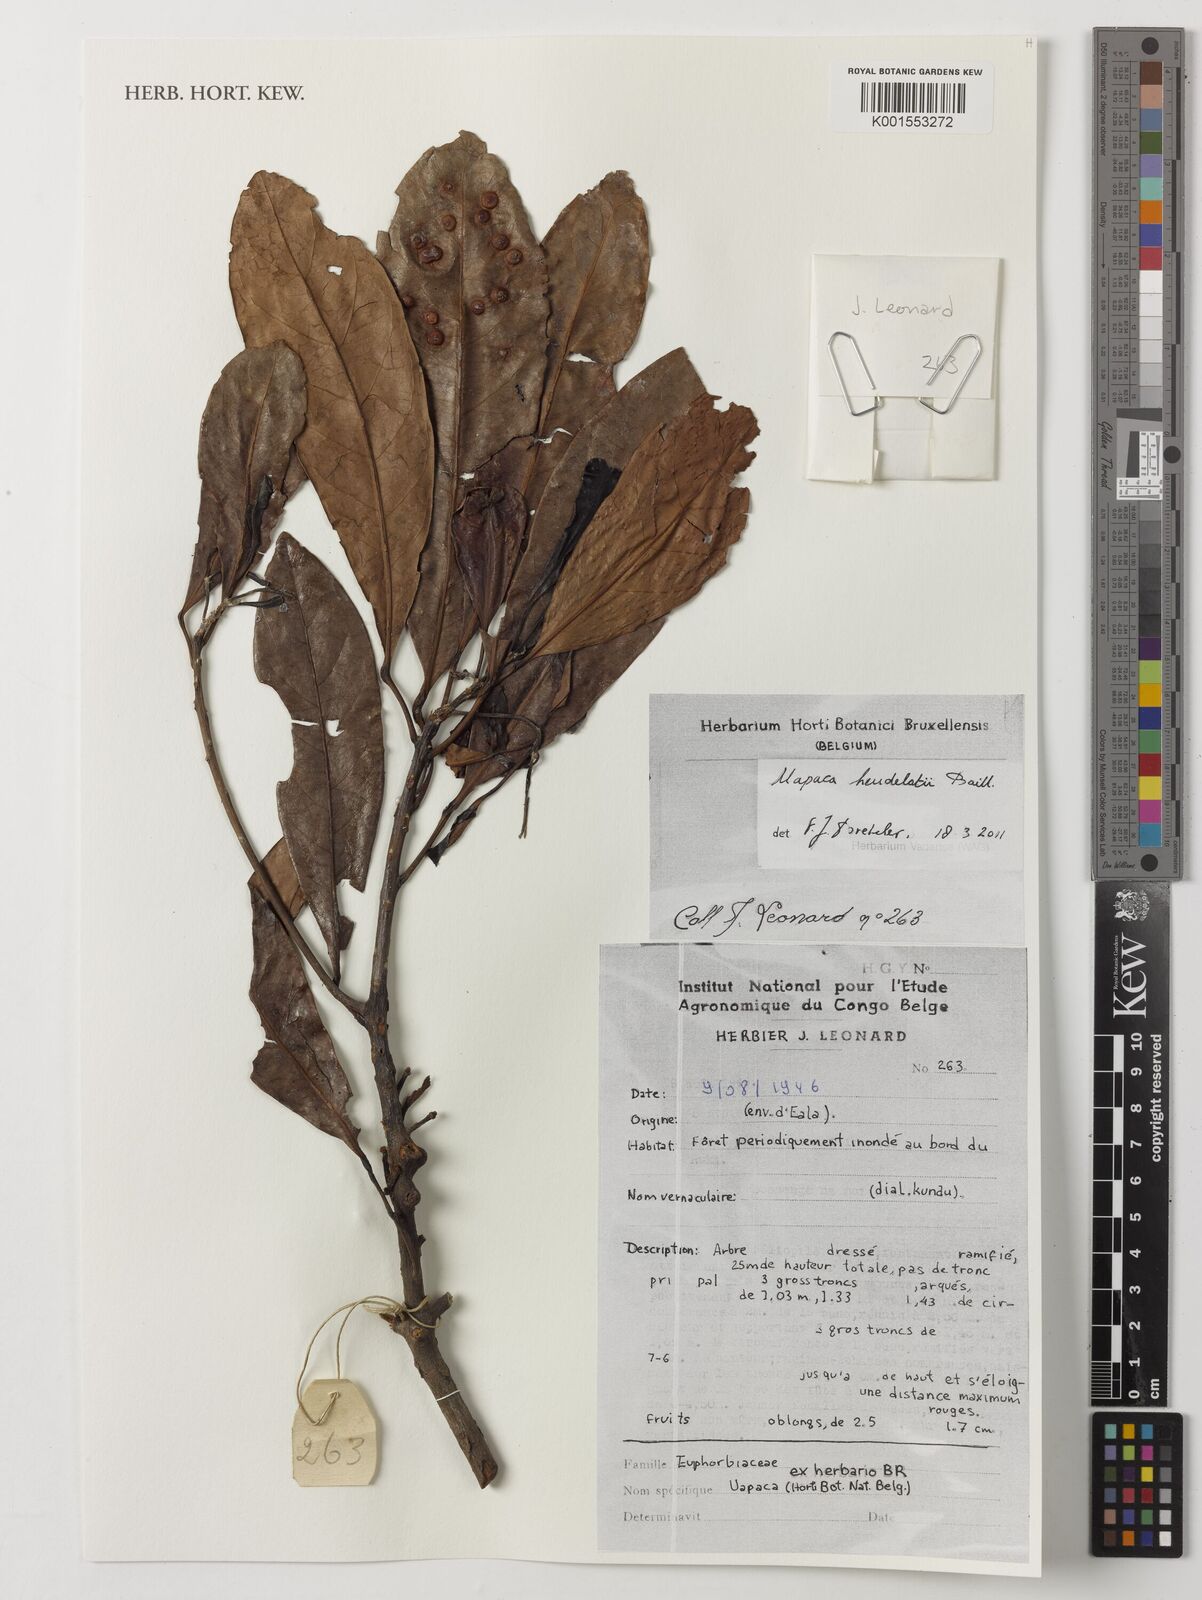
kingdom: Plantae
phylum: Tracheophyta
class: Magnoliopsida
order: Malpighiales
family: Phyllanthaceae
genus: Uapaca
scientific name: Uapaca heudelotii
